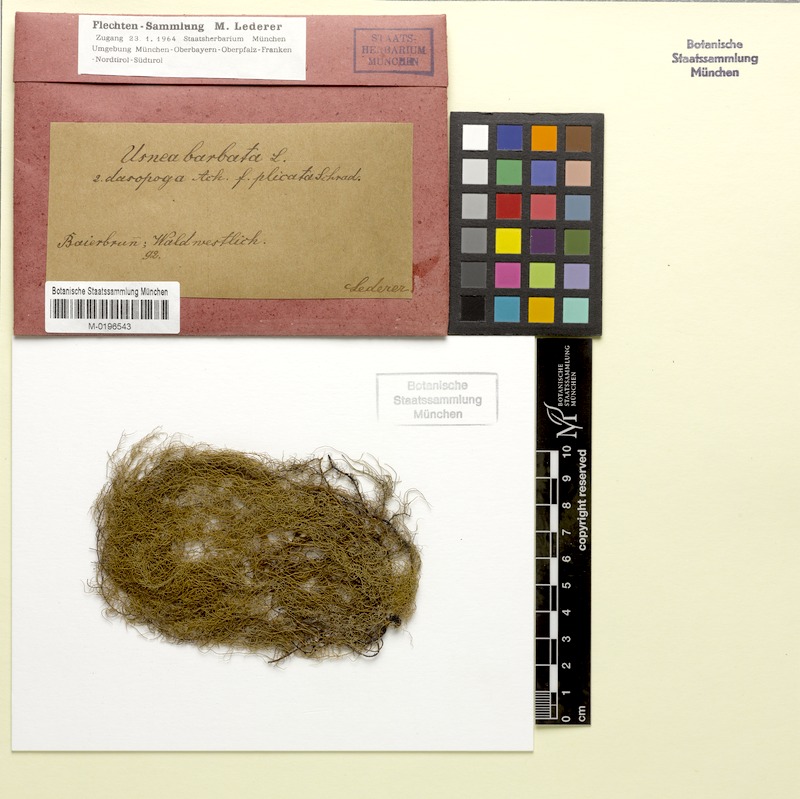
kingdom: Fungi
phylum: Ascomycota
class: Lecanoromycetes
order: Lecanorales
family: Parmeliaceae
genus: Usnea
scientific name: Usnea dasopoga
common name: Fishbone beard lichen
